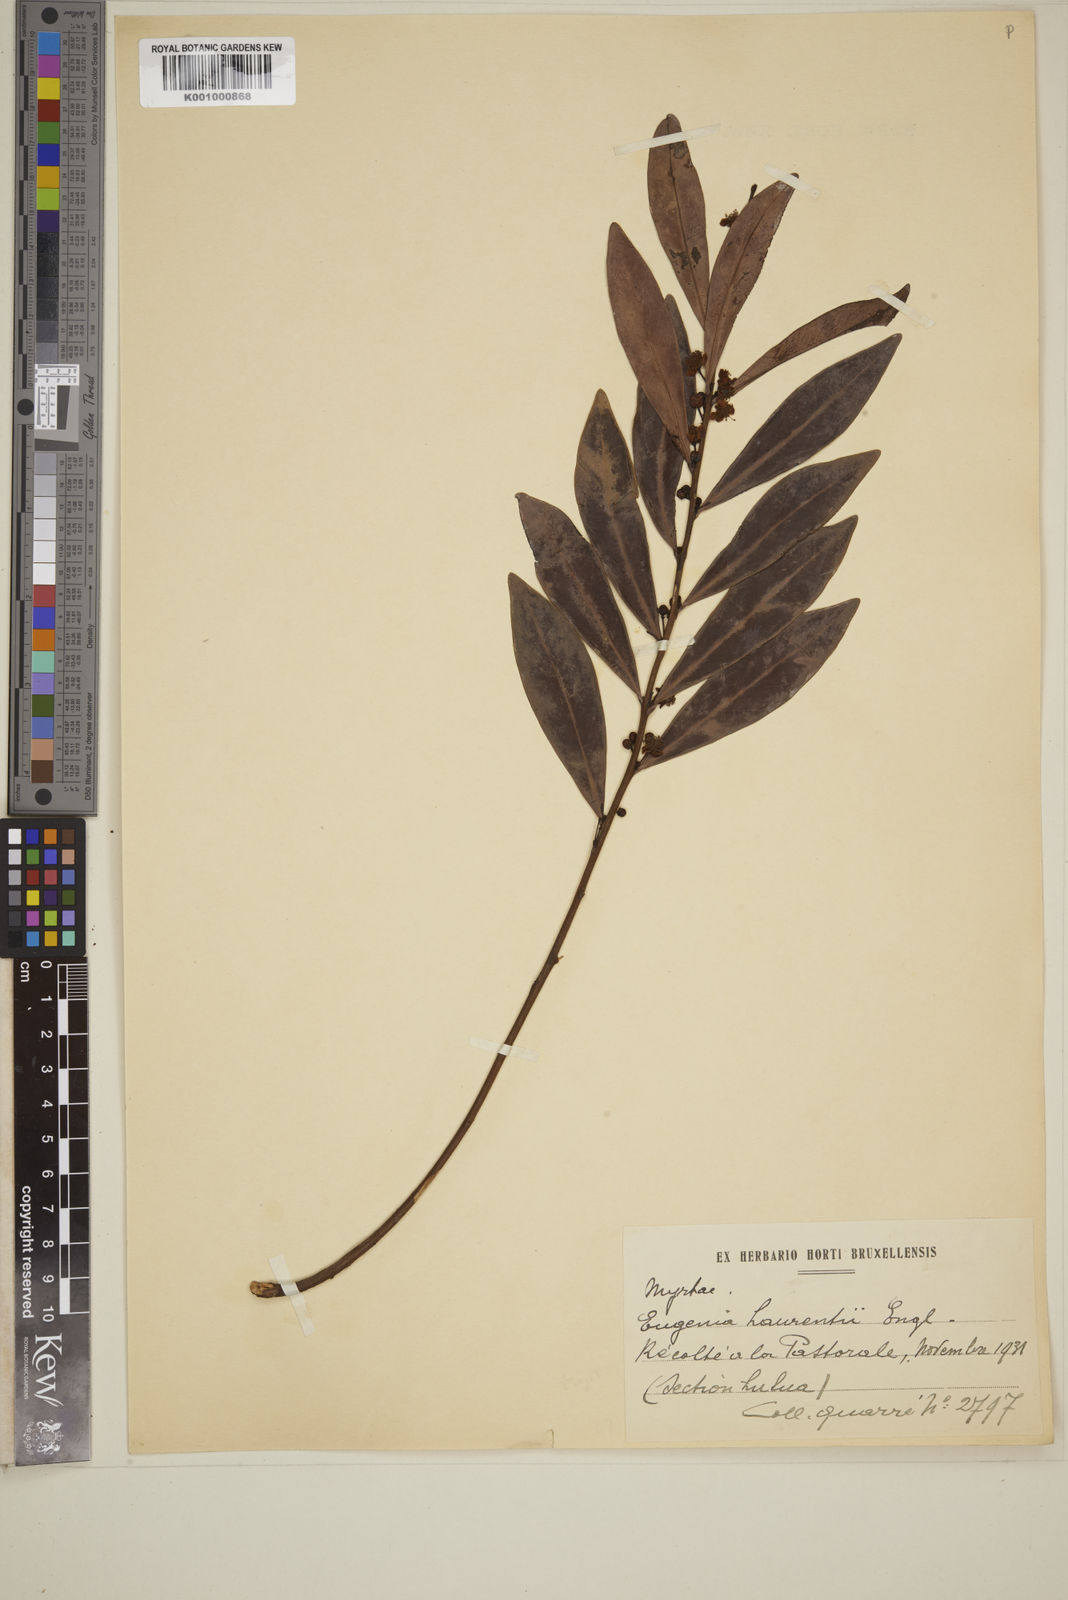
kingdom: Plantae
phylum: Tracheophyta
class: Magnoliopsida
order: Myrtales
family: Myrtaceae
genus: Eugenia
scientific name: Eugenia malangensis
